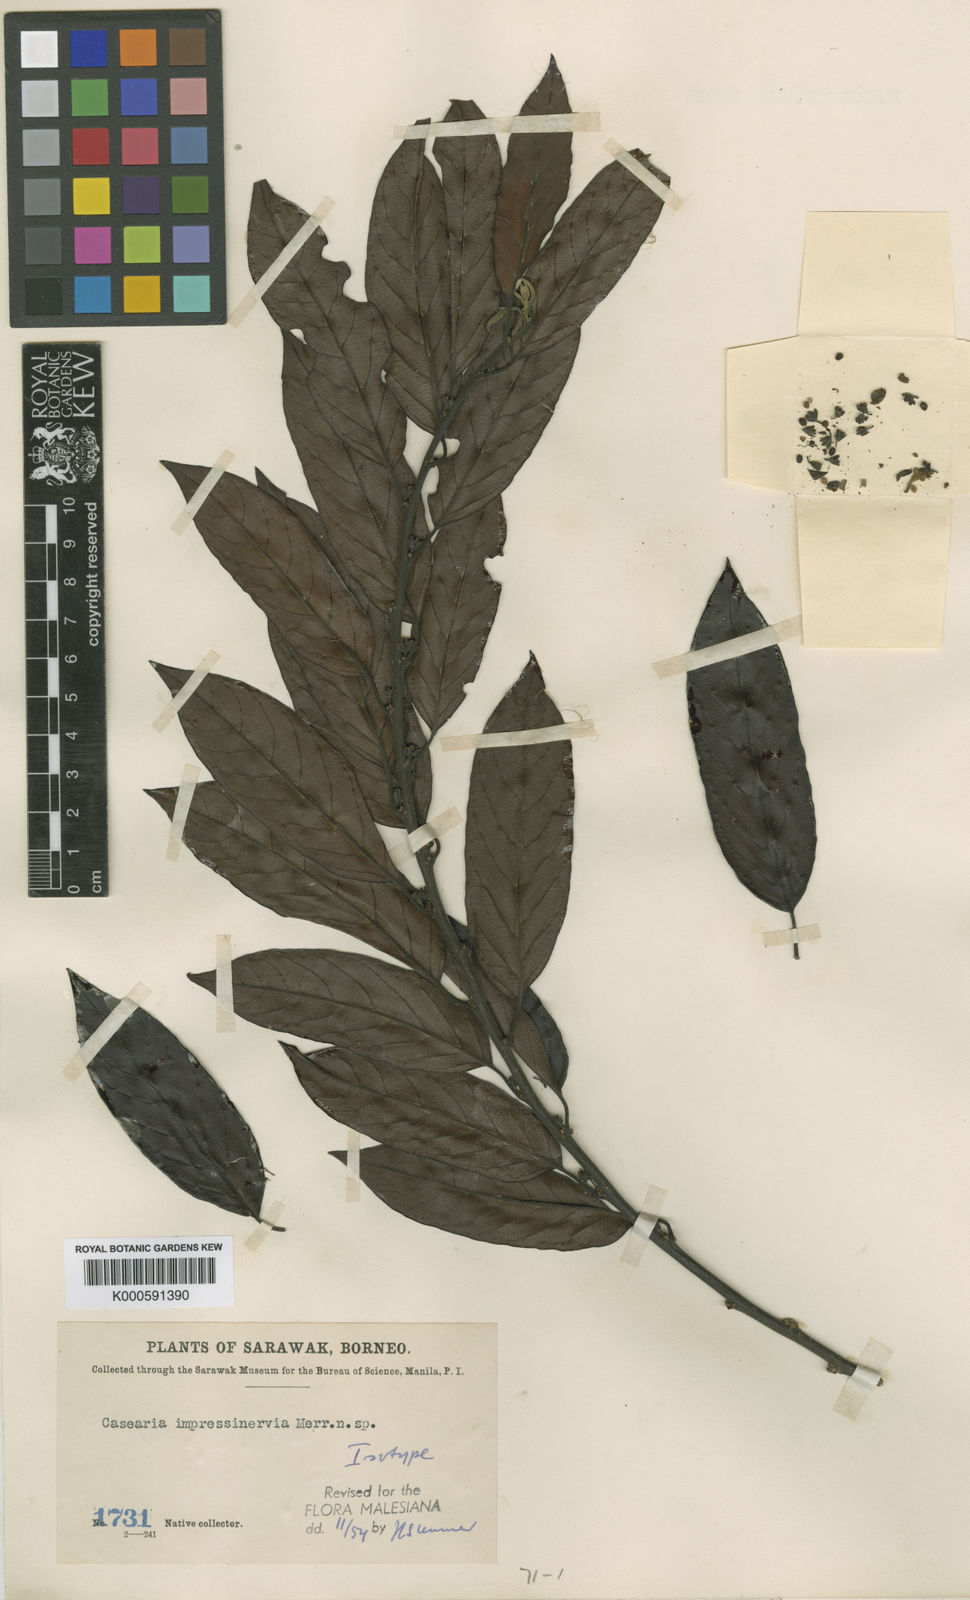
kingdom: Plantae
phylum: Tracheophyta
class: Magnoliopsida
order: Malpighiales
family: Salicaceae
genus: Casearia
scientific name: Casearia impressinervia
